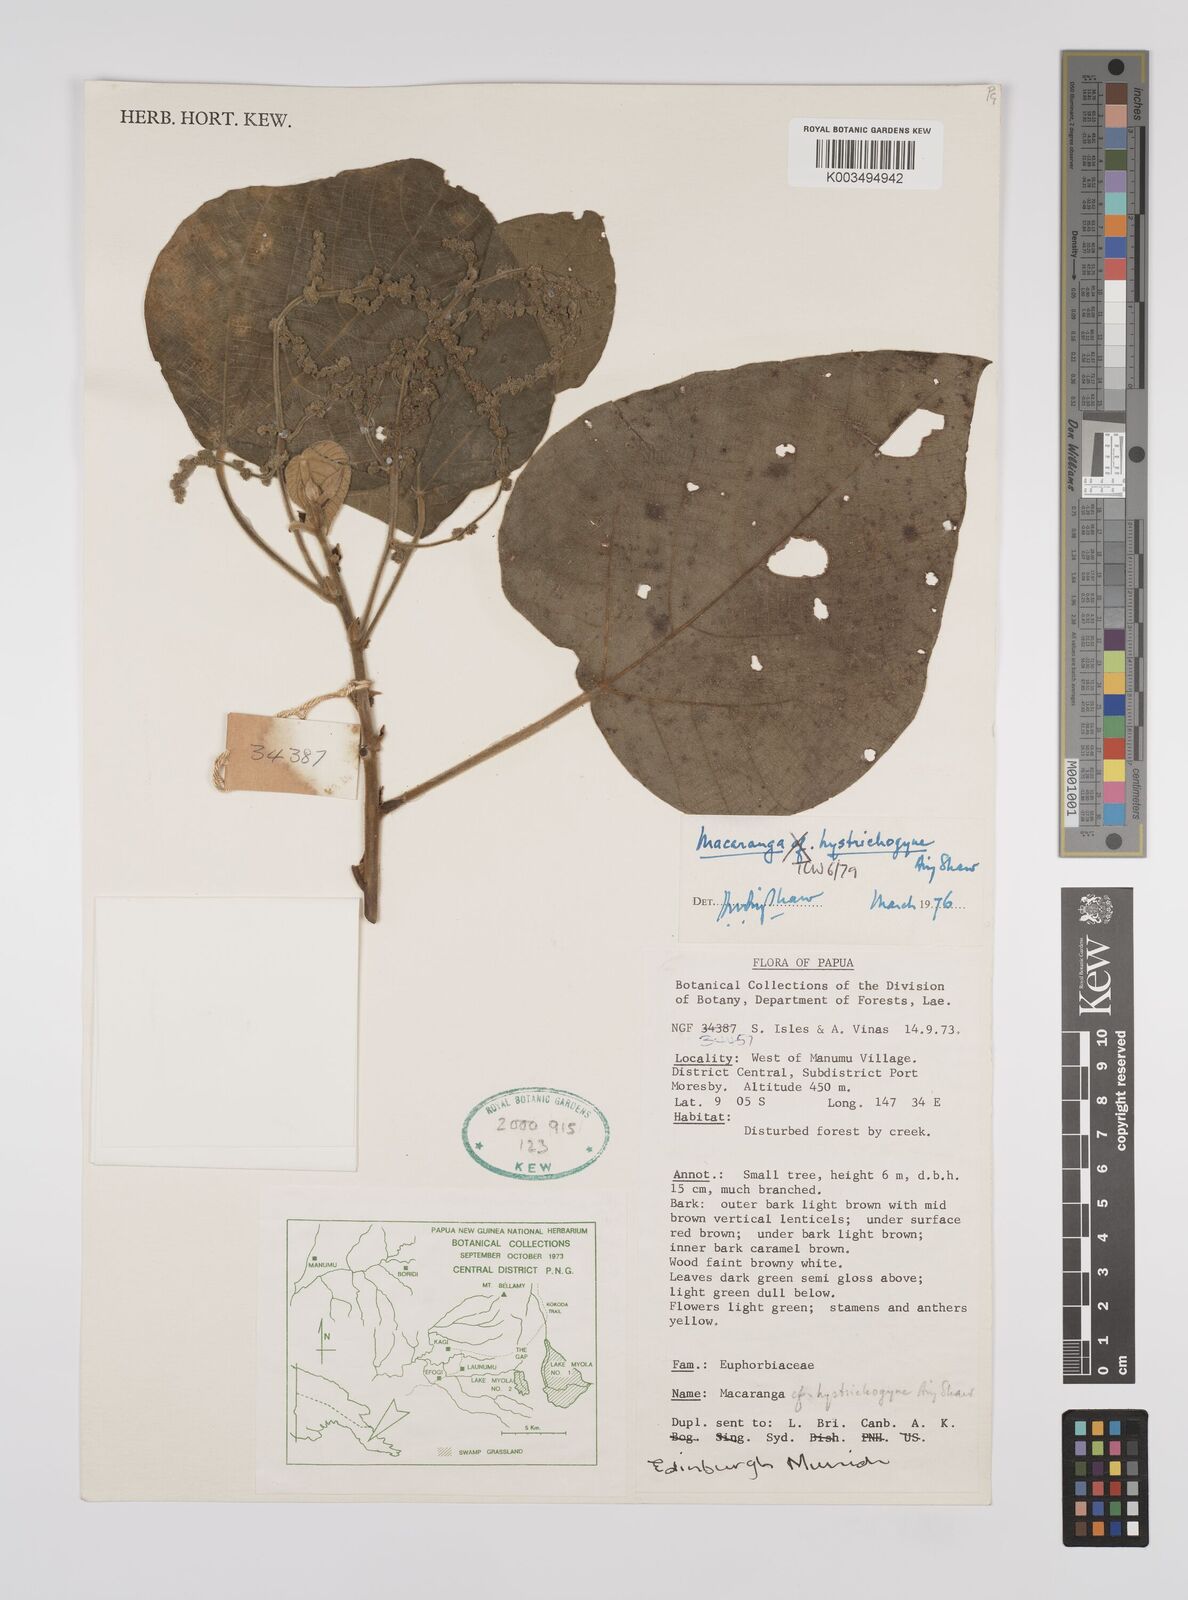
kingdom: Plantae
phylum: Tracheophyta
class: Magnoliopsida
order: Malpighiales
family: Euphorbiaceae
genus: Macaranga
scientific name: Macaranga hystrichogyne
